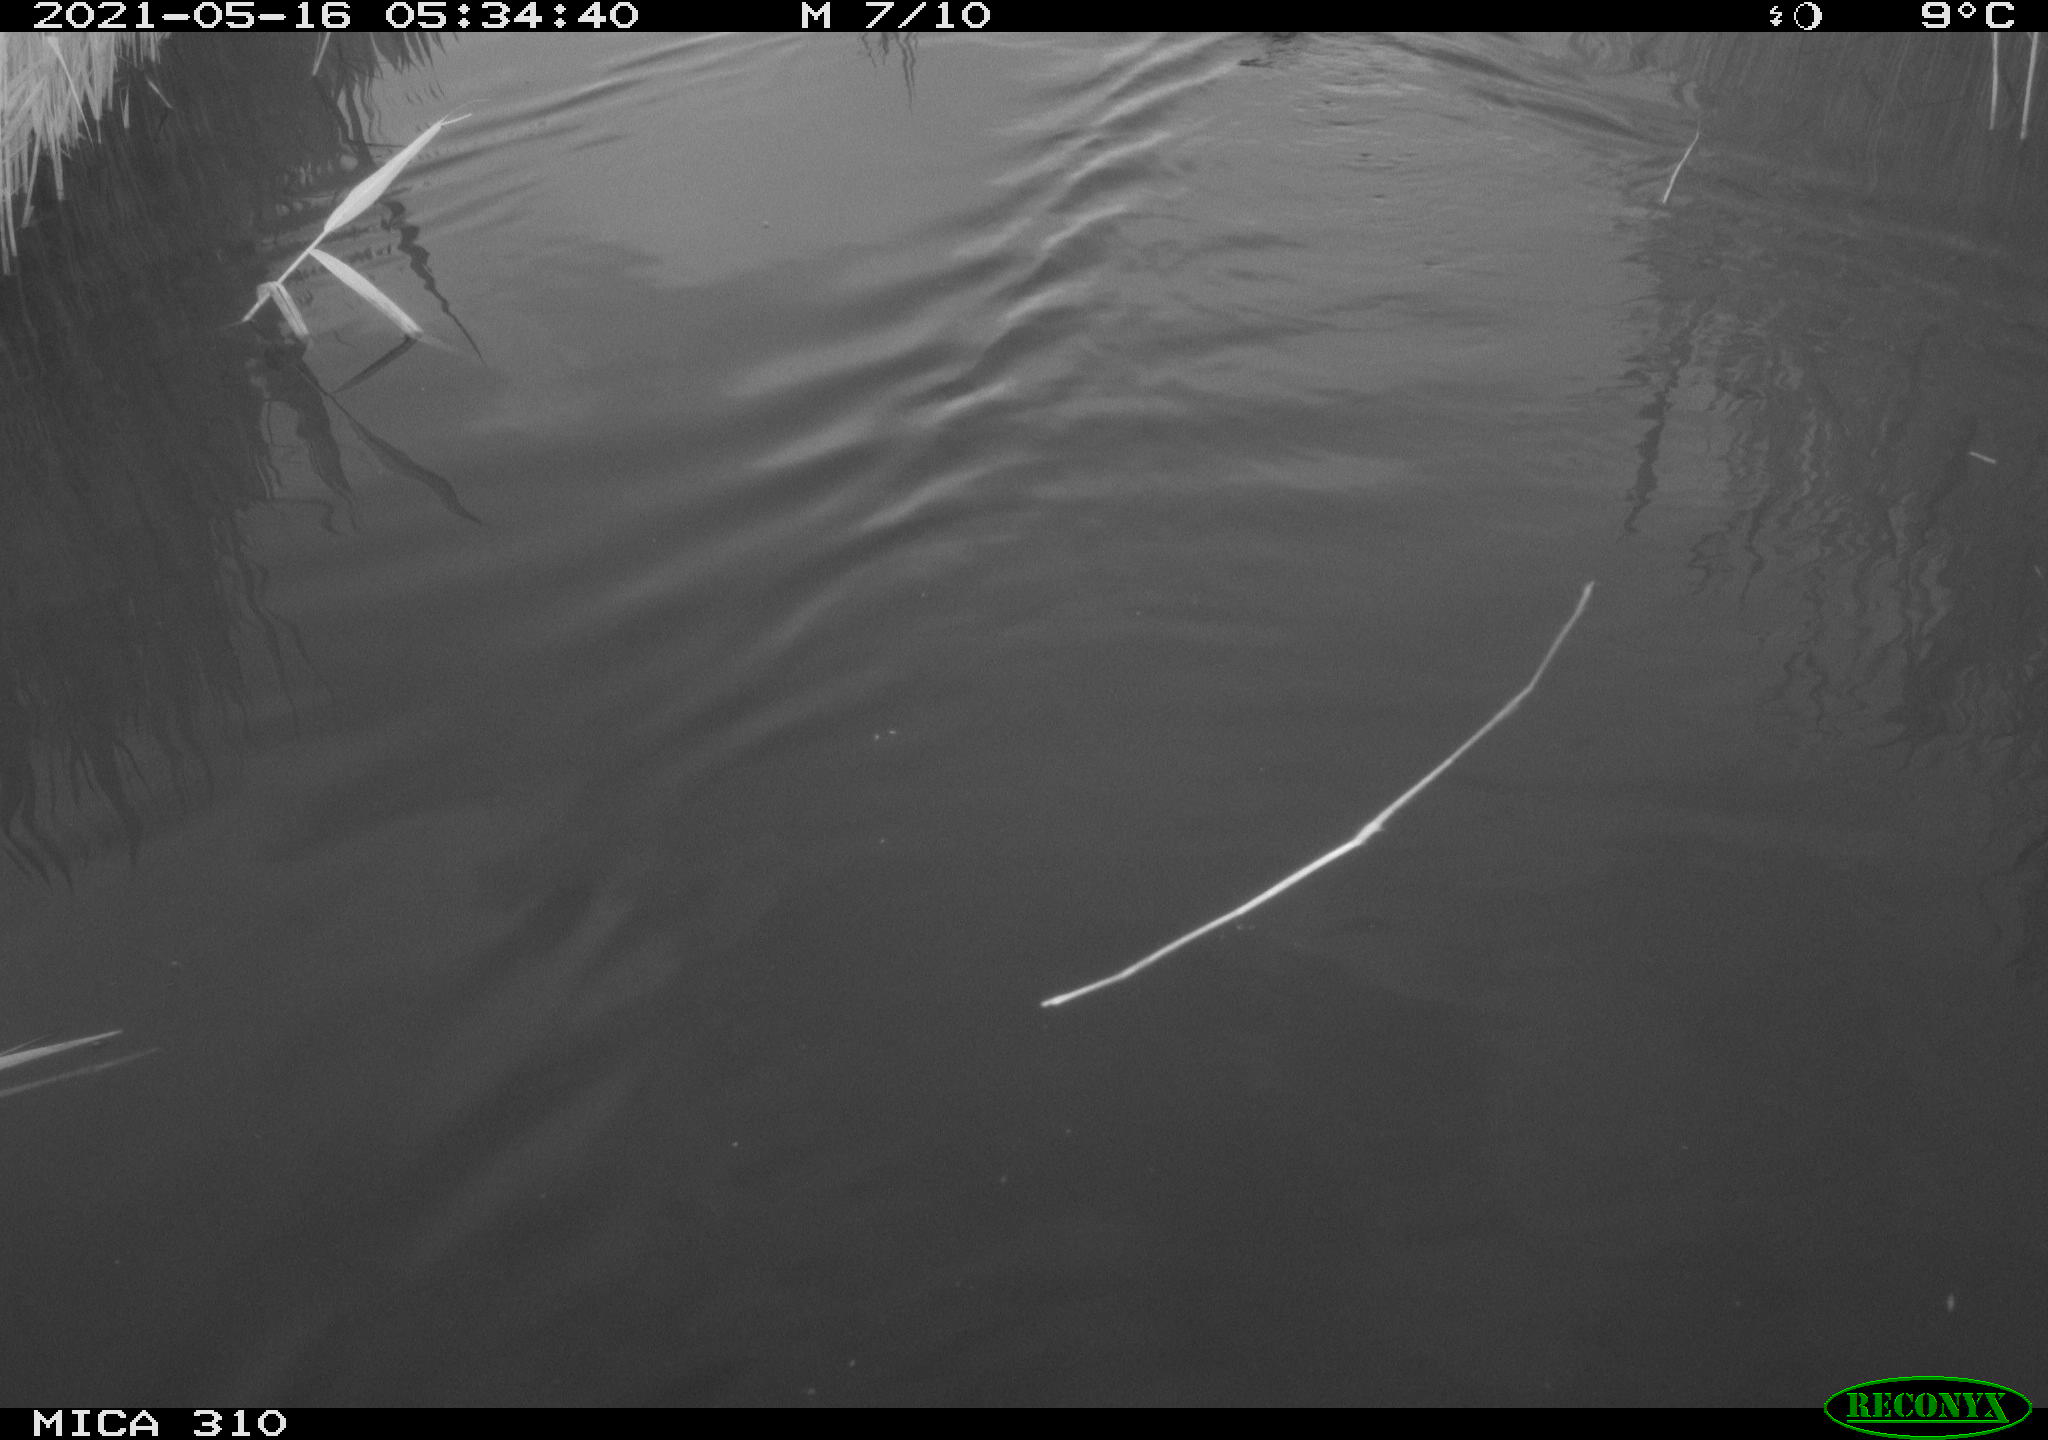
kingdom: Animalia
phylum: Chordata
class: Aves
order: Anseriformes
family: Anatidae
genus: Anas
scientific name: Anas platyrhynchos
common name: Mallard
